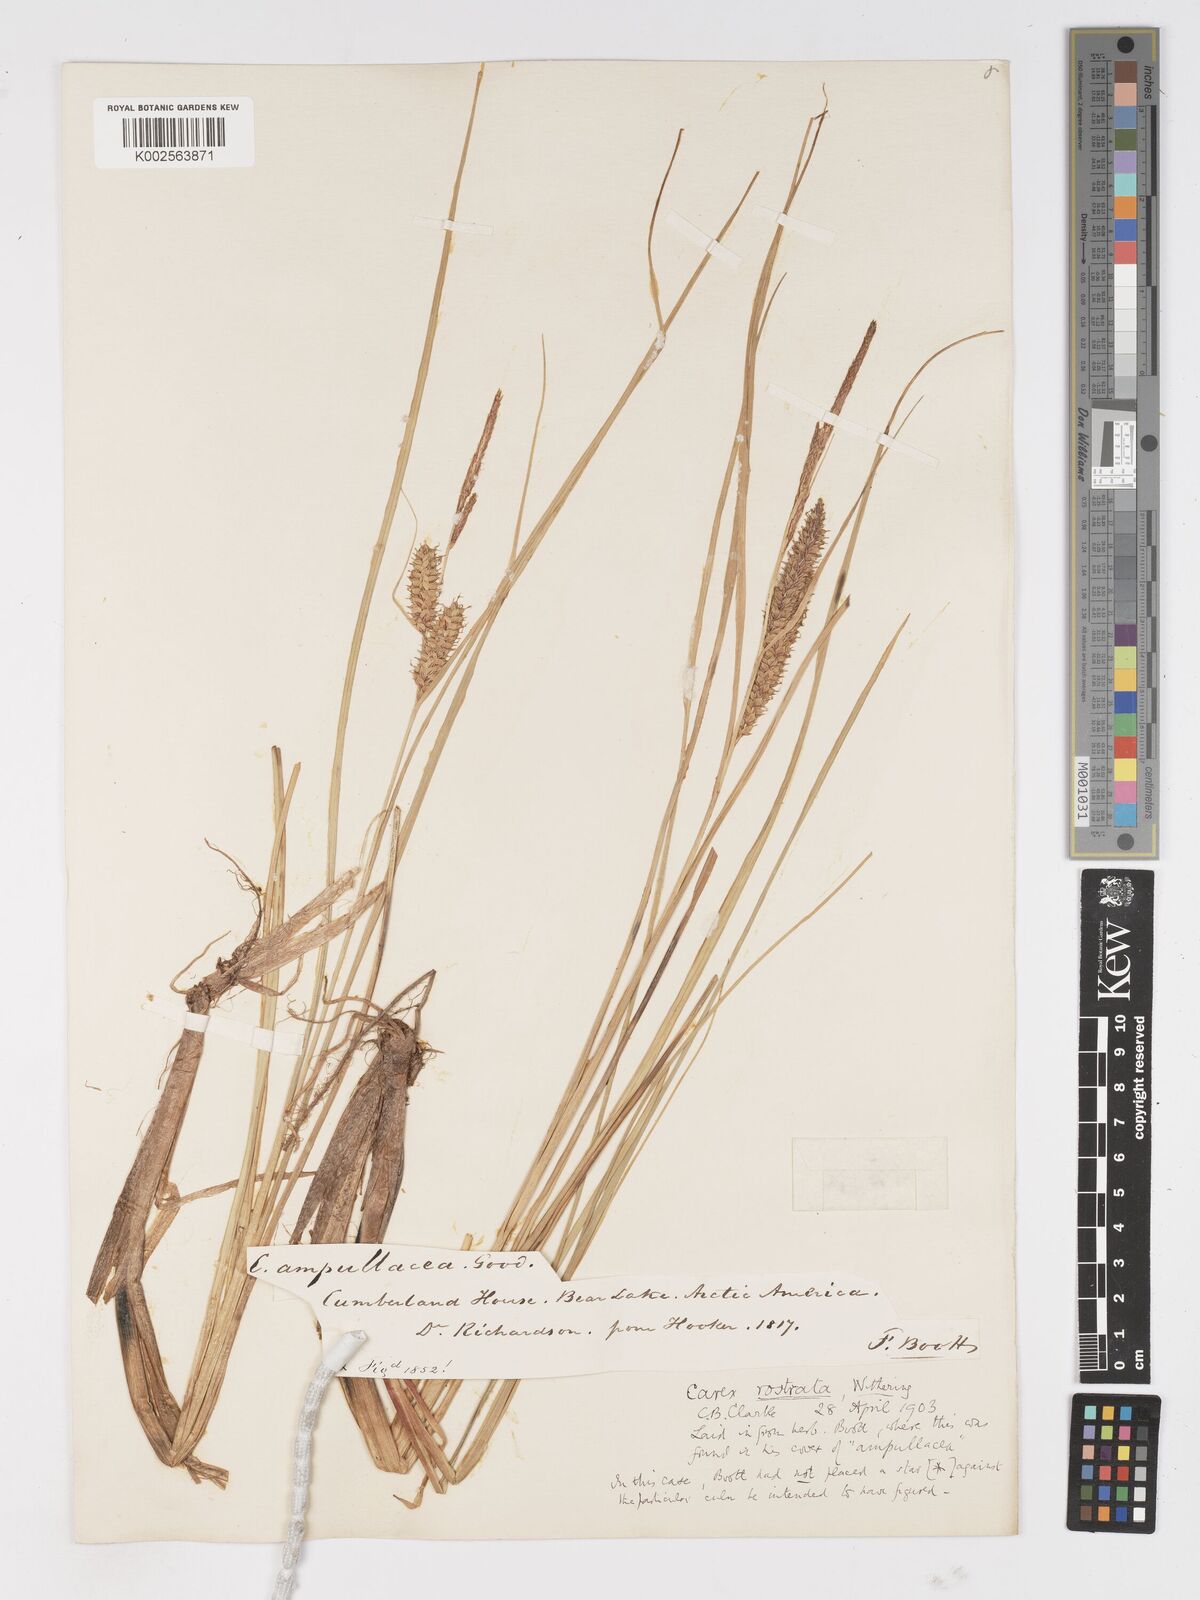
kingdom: Plantae
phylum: Tracheophyta
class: Liliopsida
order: Poales
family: Cyperaceae
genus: Carex
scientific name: Carex rostrata
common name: Bottle sedge
